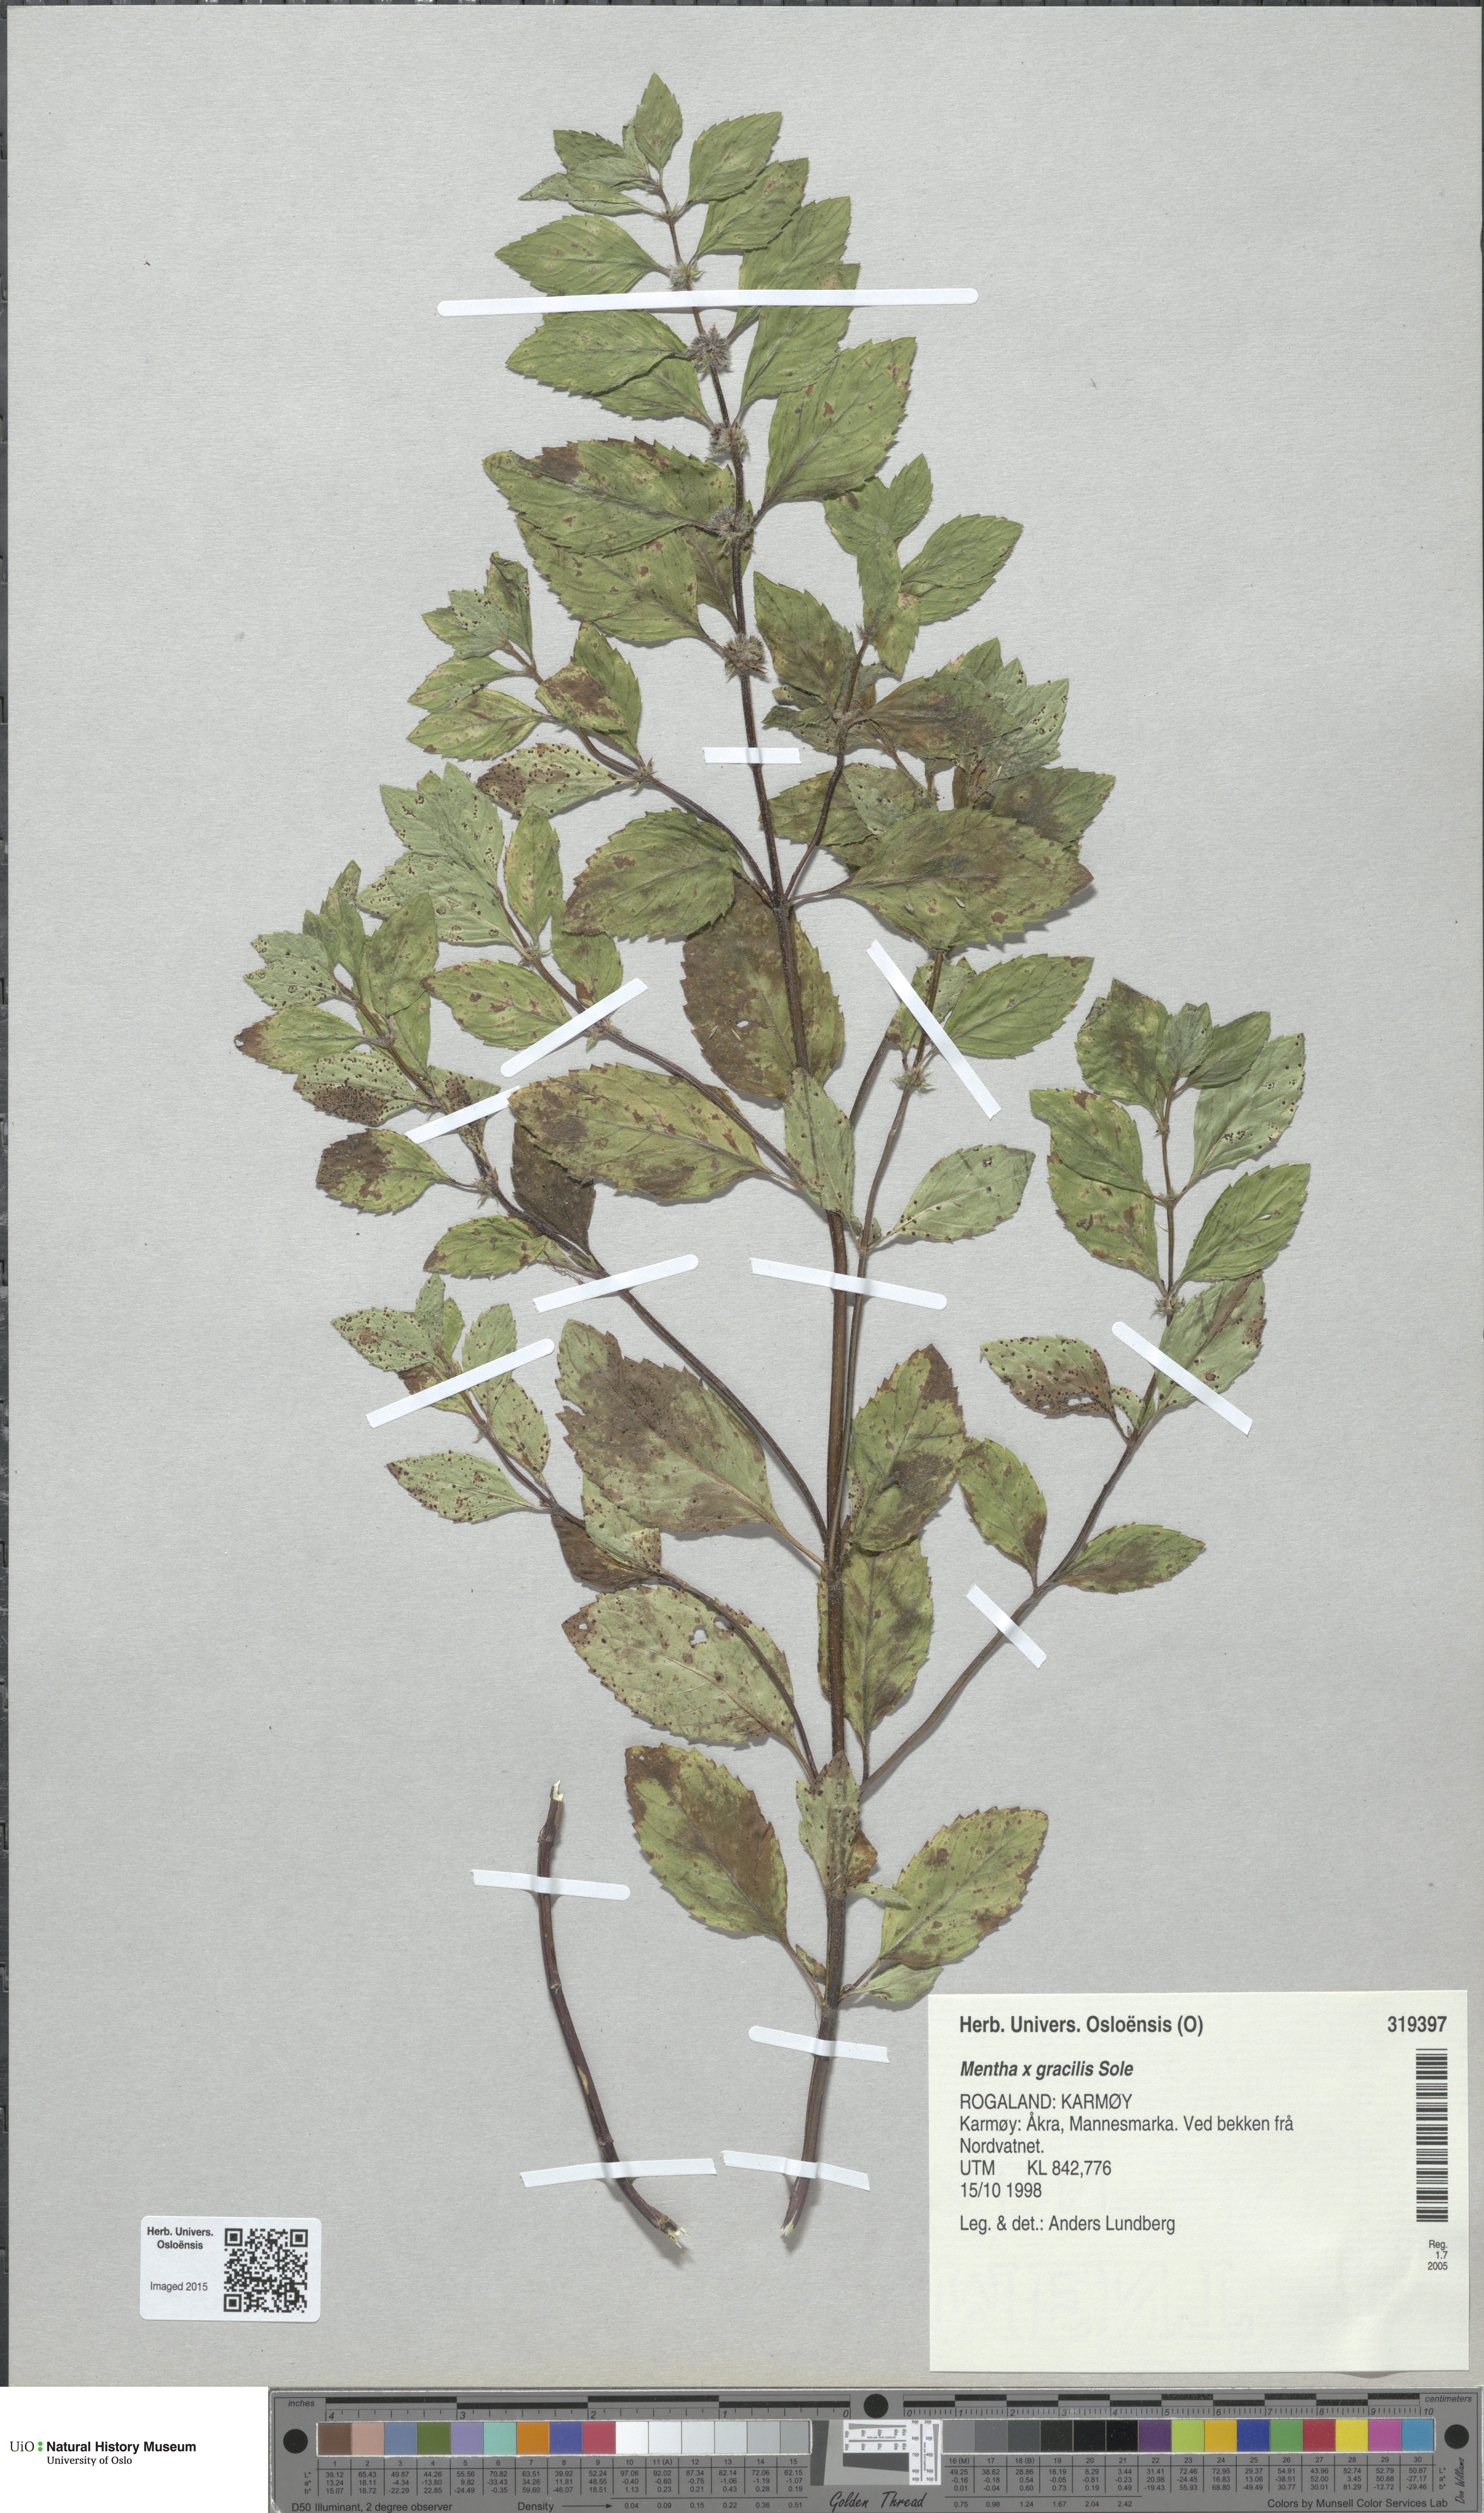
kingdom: Plantae
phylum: Tracheophyta
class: Magnoliopsida
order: Lamiales
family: Lamiaceae
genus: Mentha
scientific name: Mentha arvensis
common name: Corn mint
